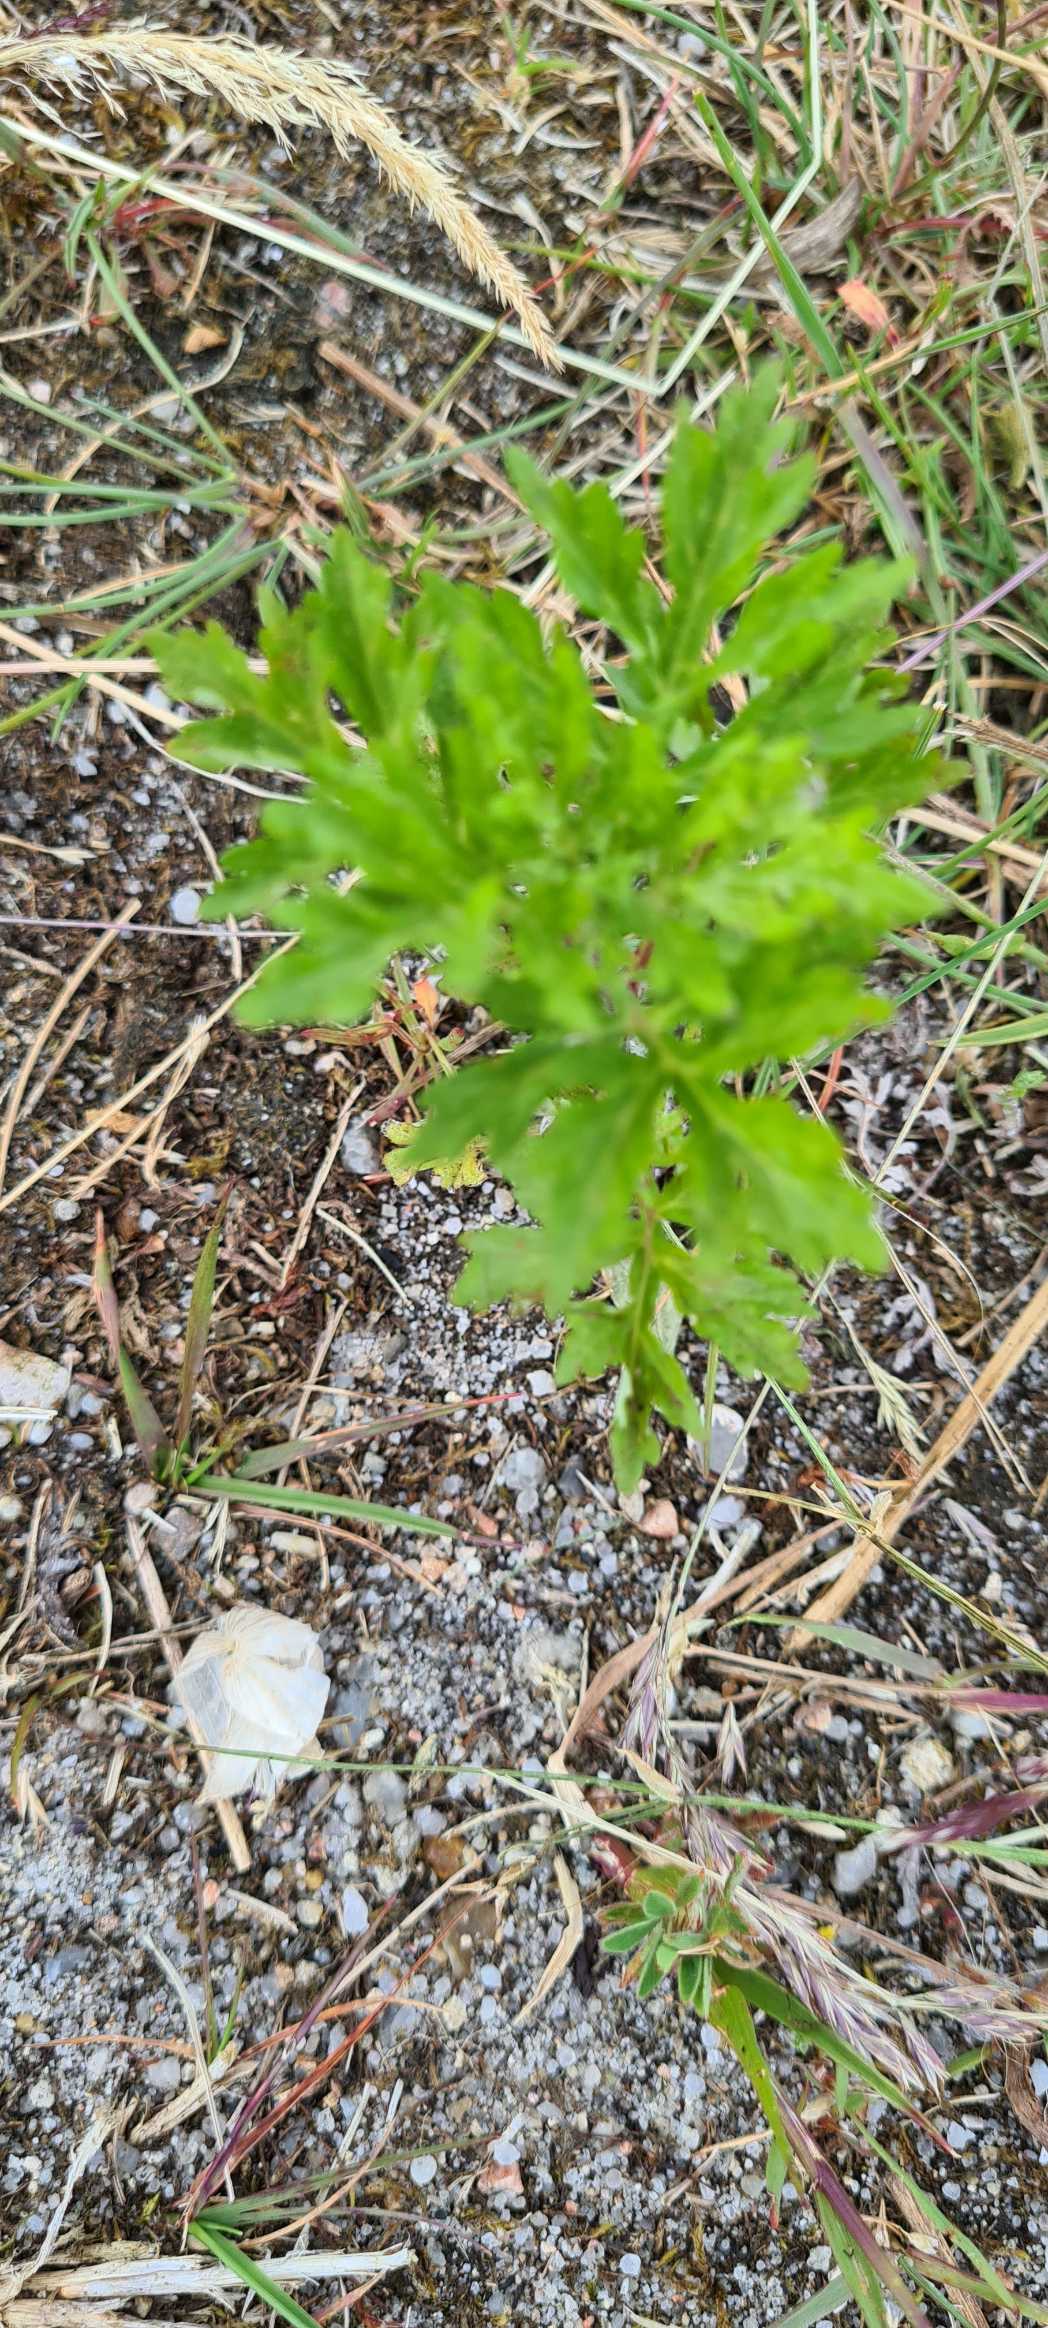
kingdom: Plantae
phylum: Tracheophyta
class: Magnoliopsida
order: Asterales
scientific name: Asterales
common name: Kurvplanteordenen
